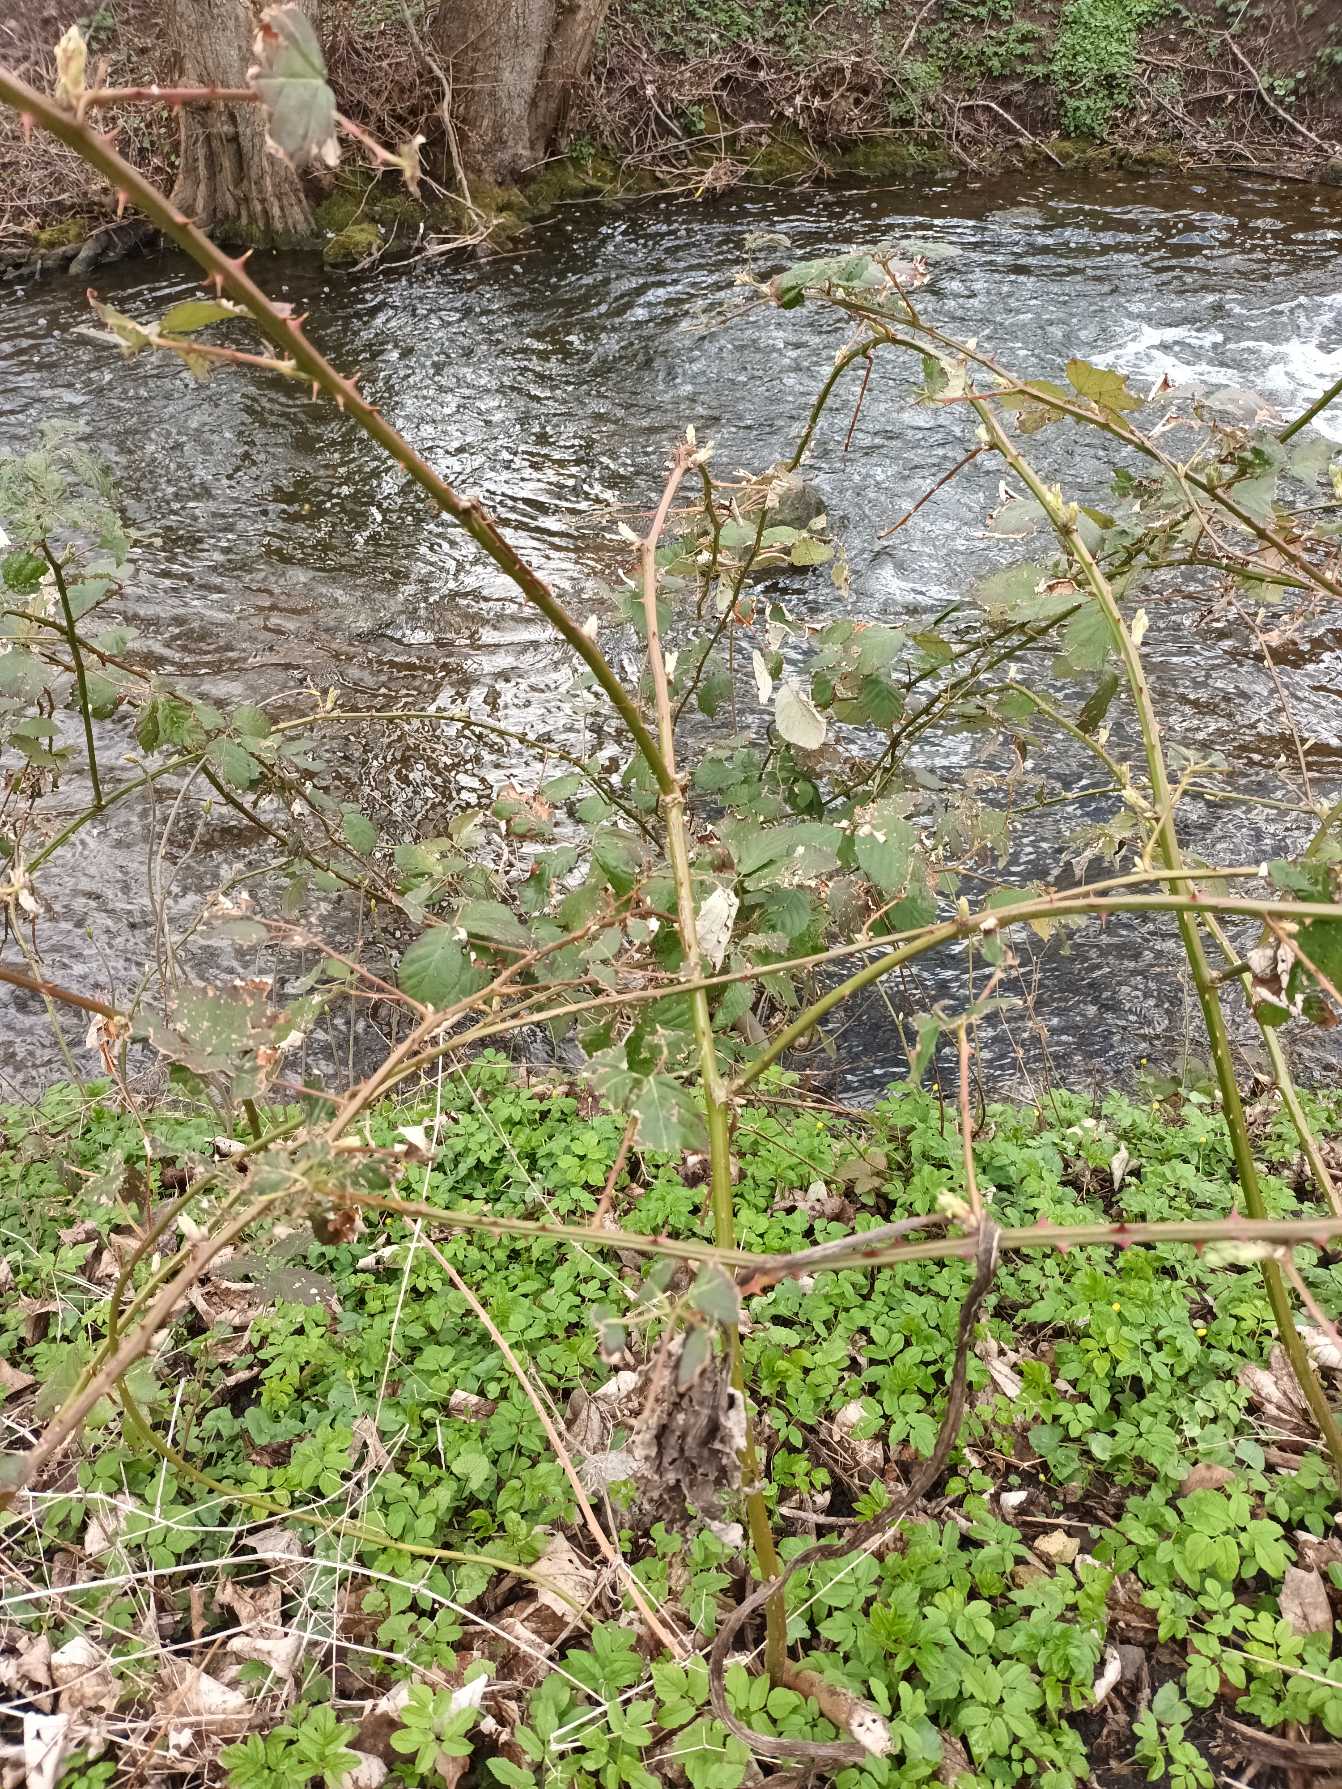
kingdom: Plantae
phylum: Tracheophyta
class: Magnoliopsida
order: Rosales
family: Rosaceae
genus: Rubus
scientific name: Rubus armeniacus
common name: Armensk brombær
